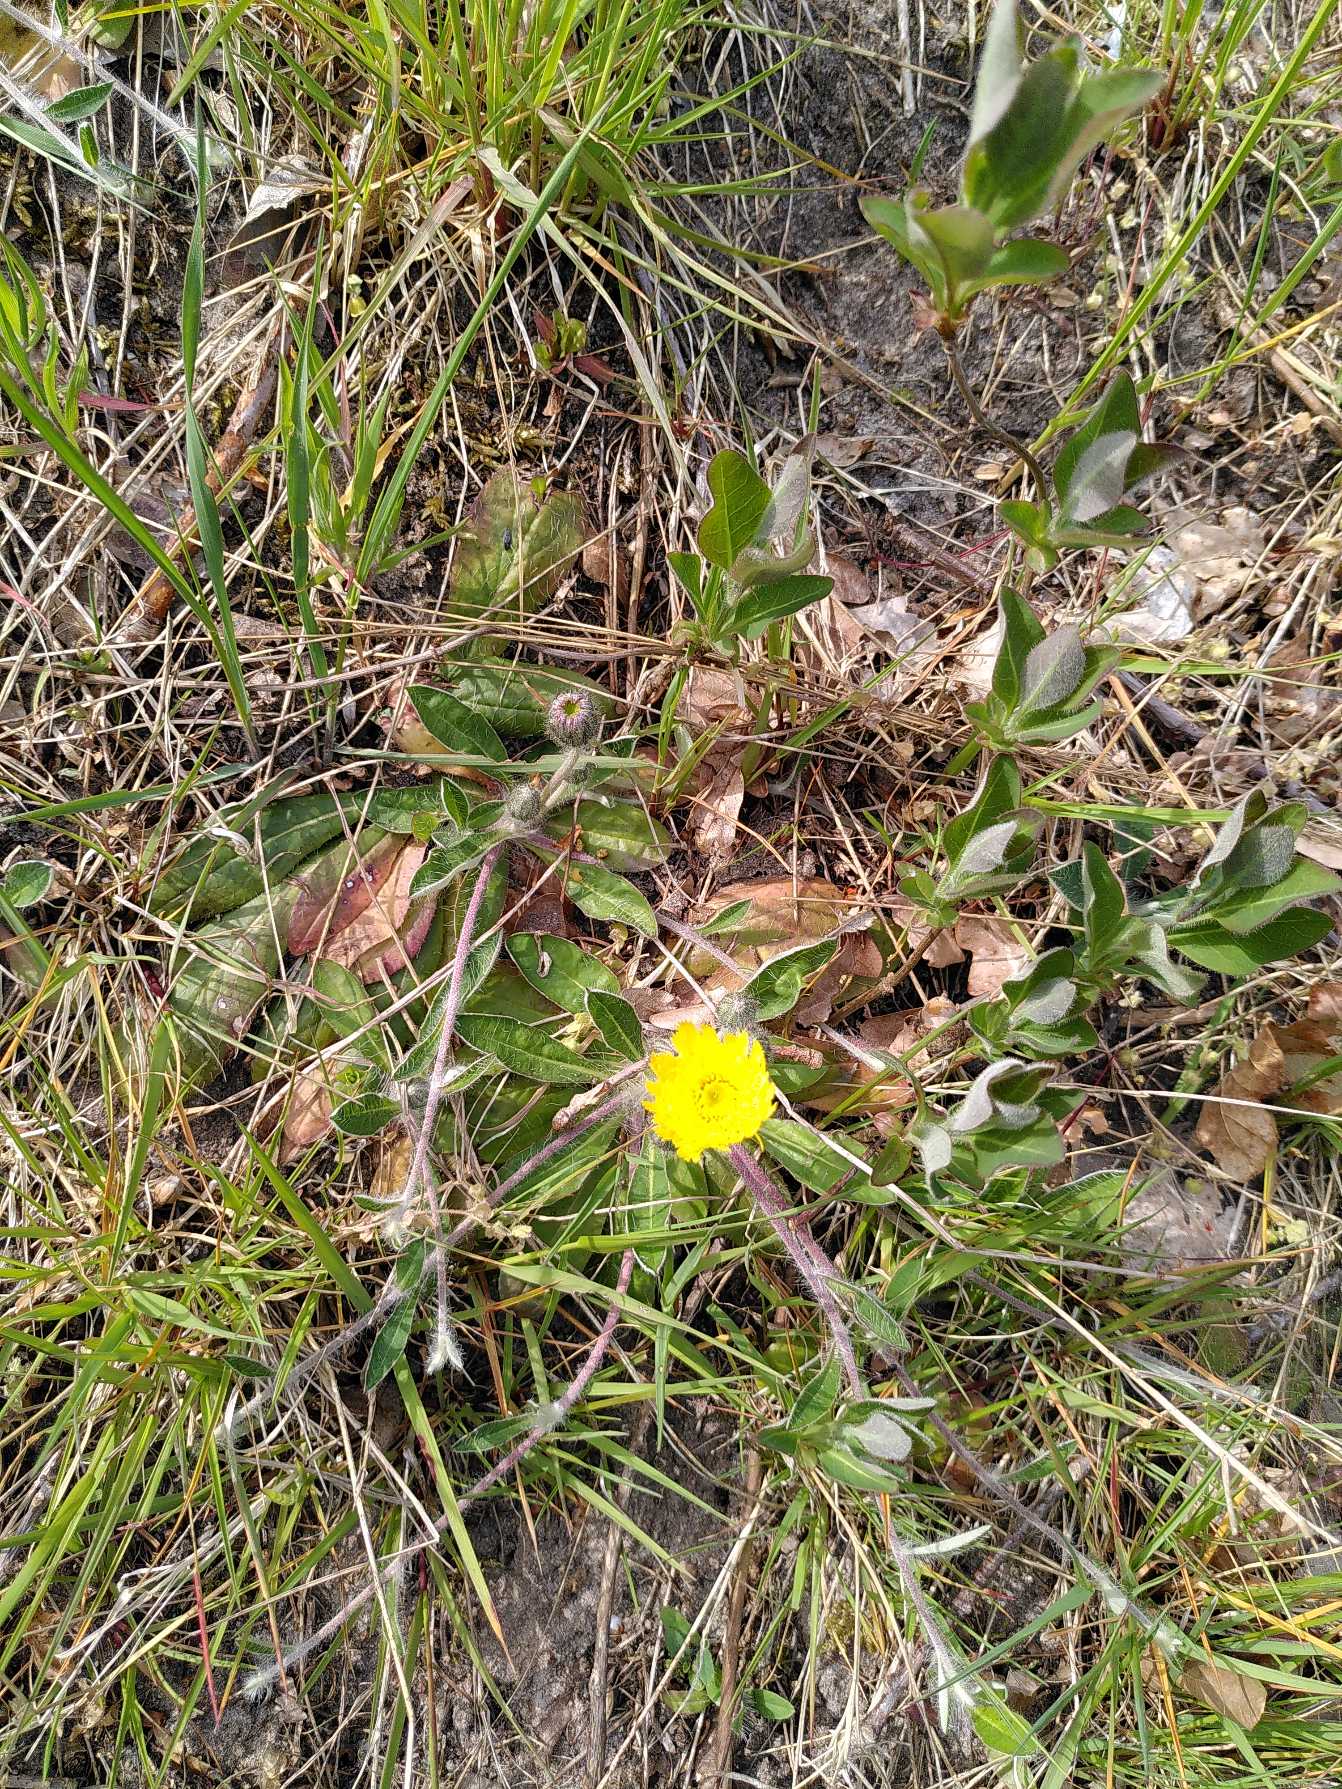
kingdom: Plantae
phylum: Tracheophyta
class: Magnoliopsida
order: Asterales
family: Asteraceae
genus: Pilosella
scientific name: Pilosella officinarum
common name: Håret høgeurt
